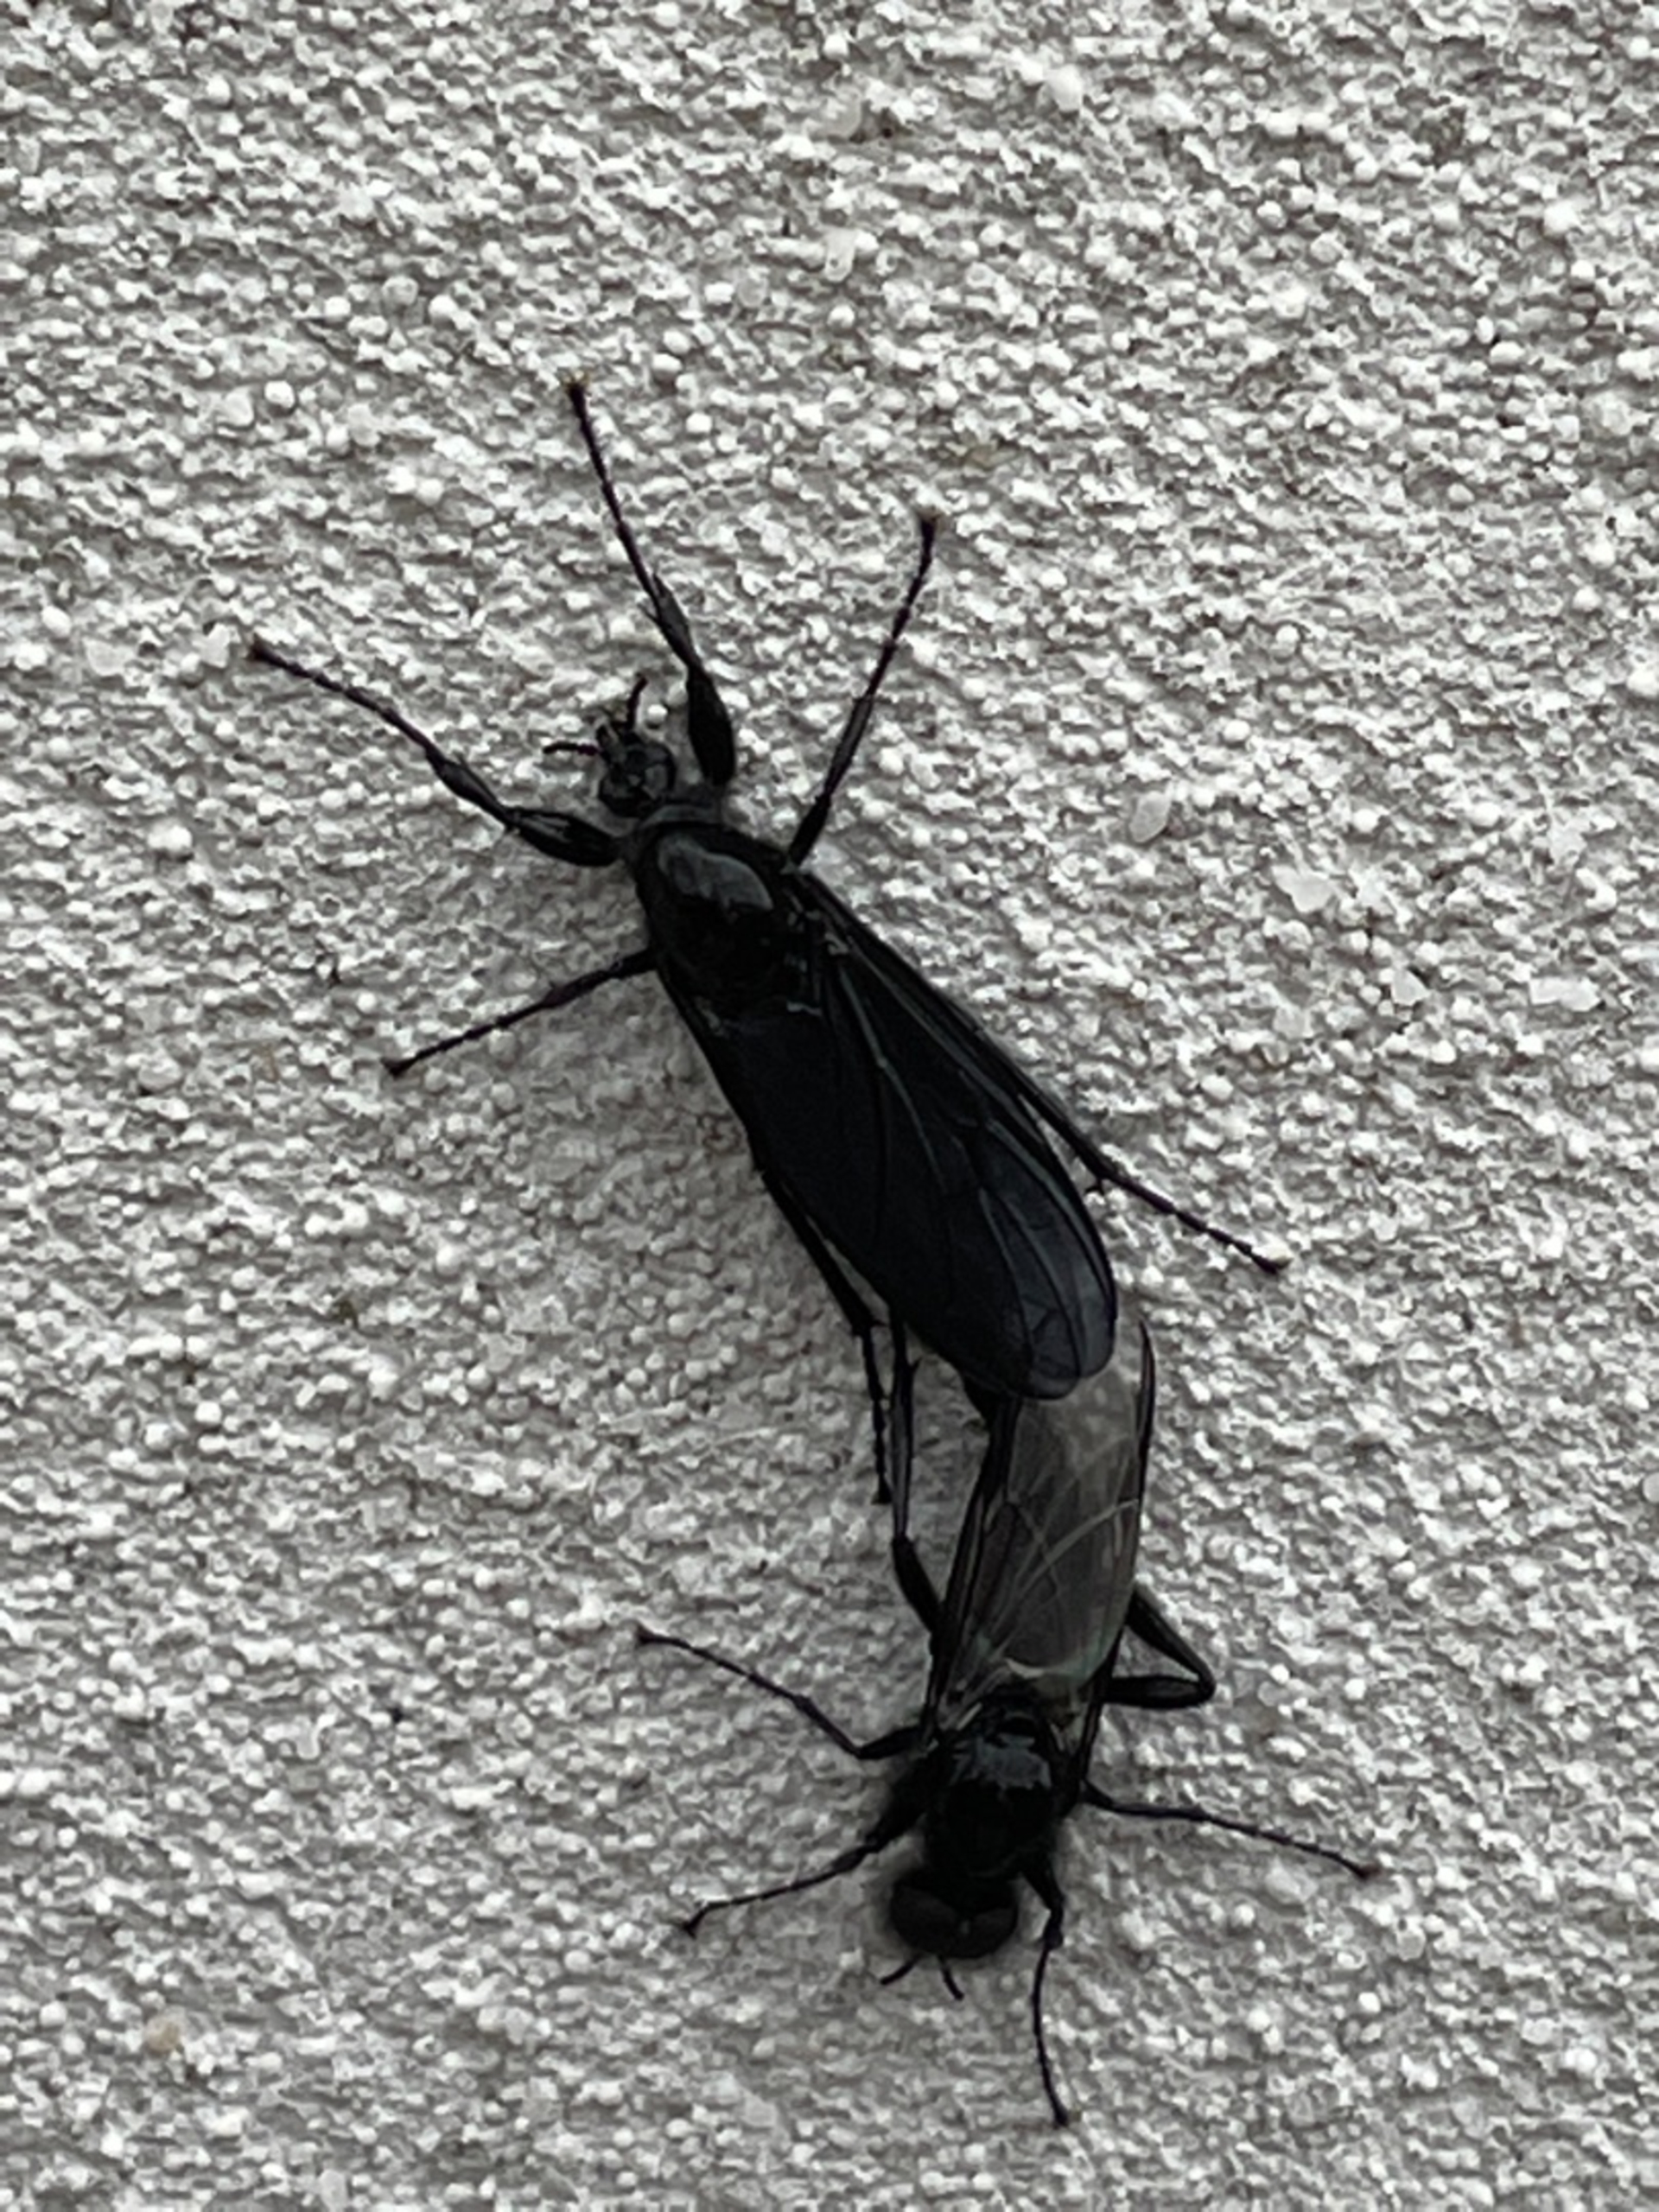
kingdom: Animalia
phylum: Arthropoda
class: Insecta
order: Diptera
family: Bibionidae
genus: Bibio
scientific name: Bibio marci
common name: Skovhårmyg
